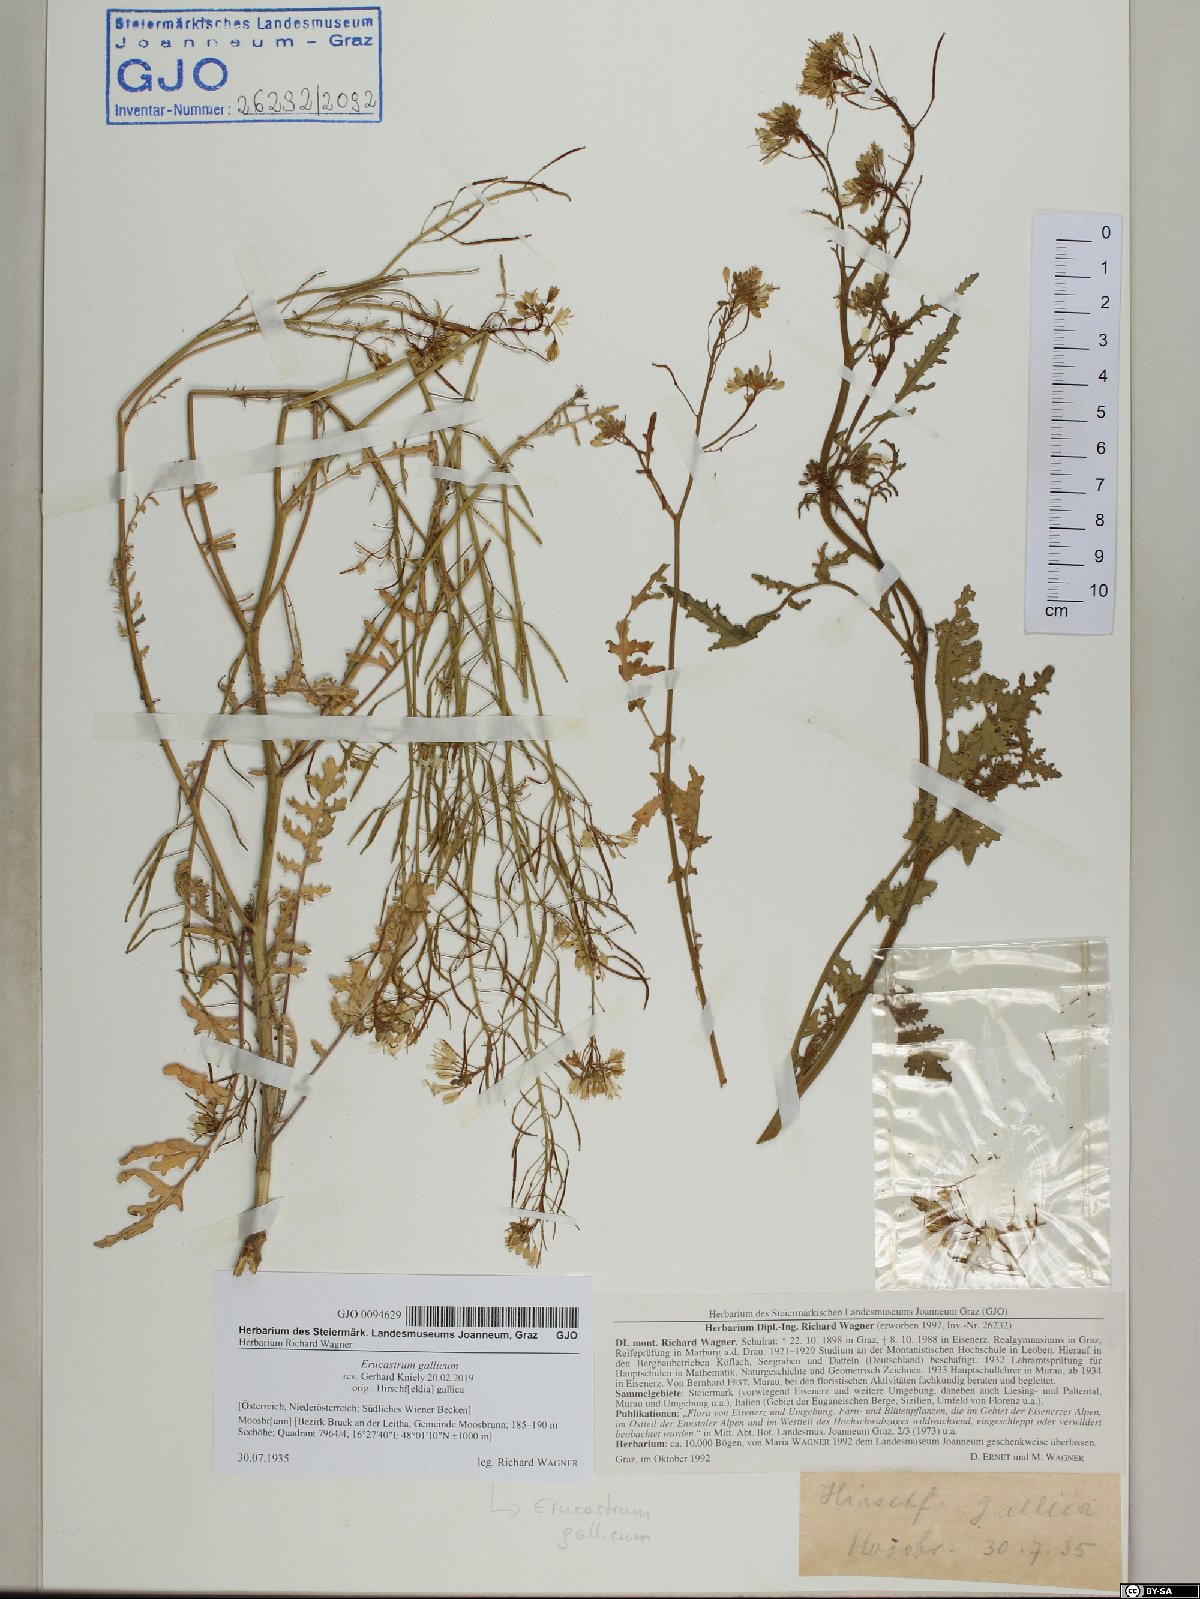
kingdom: Plantae
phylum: Tracheophyta
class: Magnoliopsida
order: Brassicales
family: Brassicaceae
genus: Erucastrum
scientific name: Erucastrum gallicum
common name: Hairy rocket
